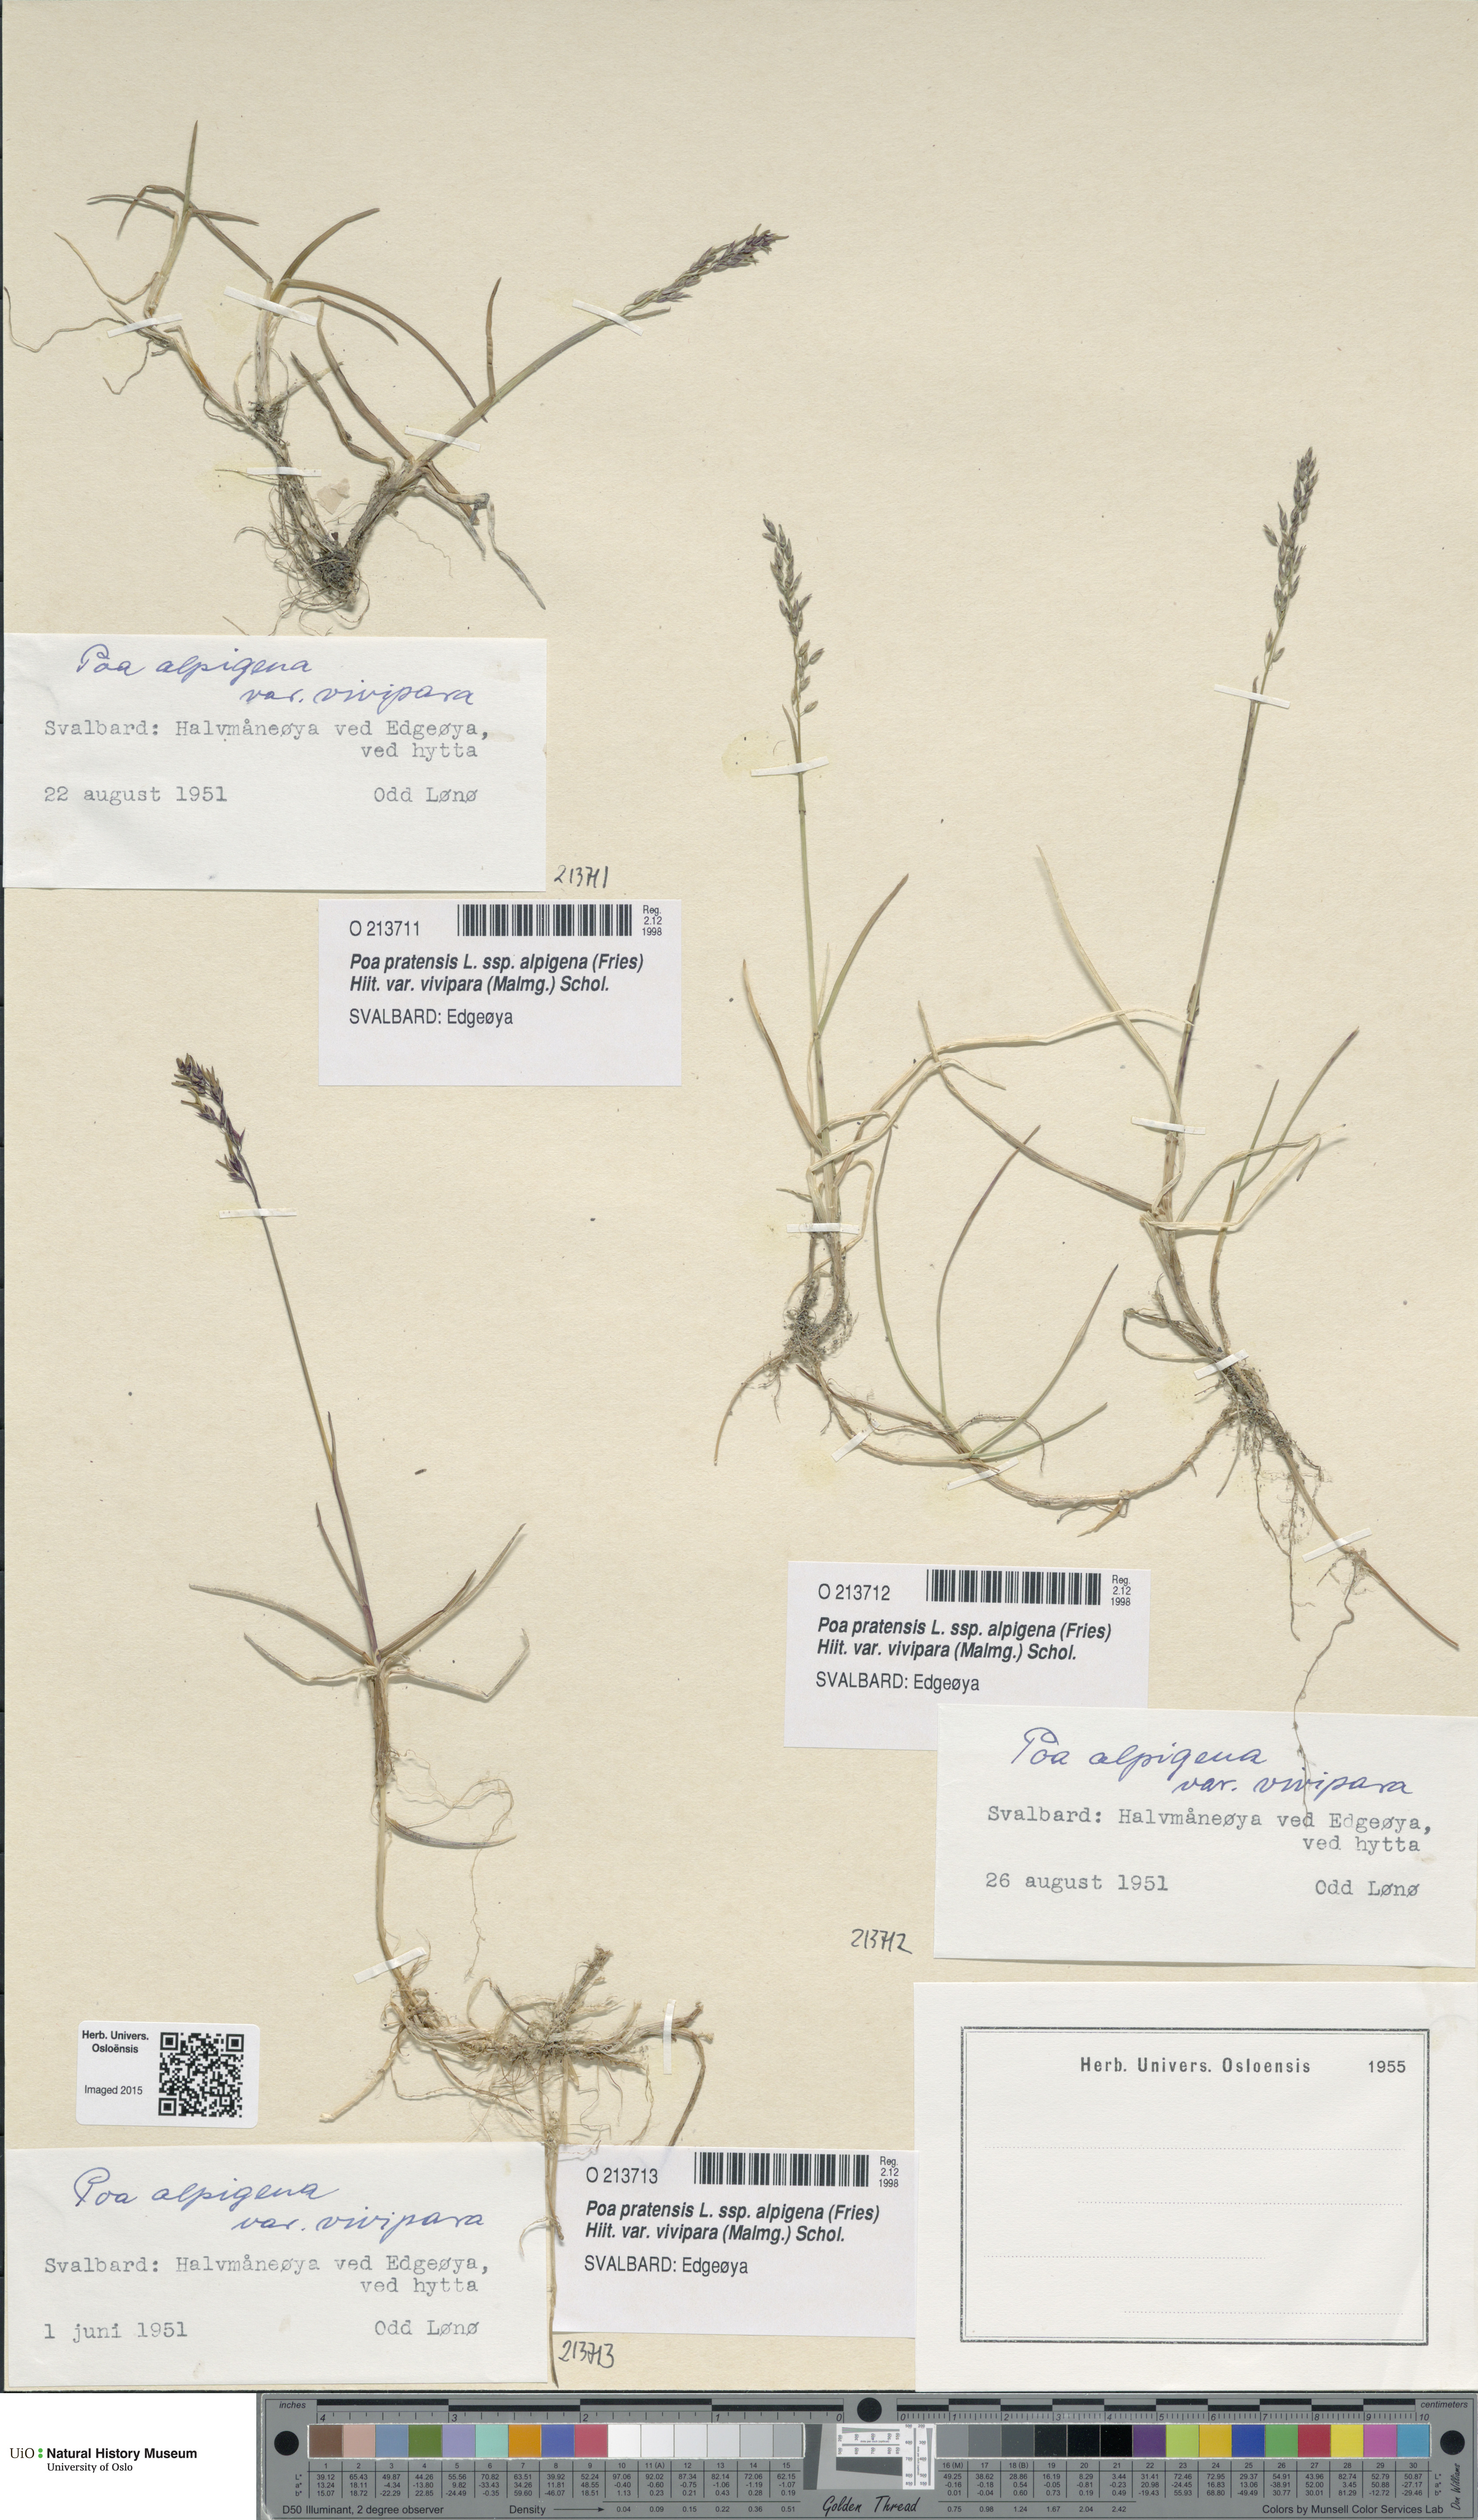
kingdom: Plantae
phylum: Tracheophyta
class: Liliopsida
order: Poales
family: Poaceae
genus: Poa
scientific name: Poa arctica
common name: Arctic bluegrass
